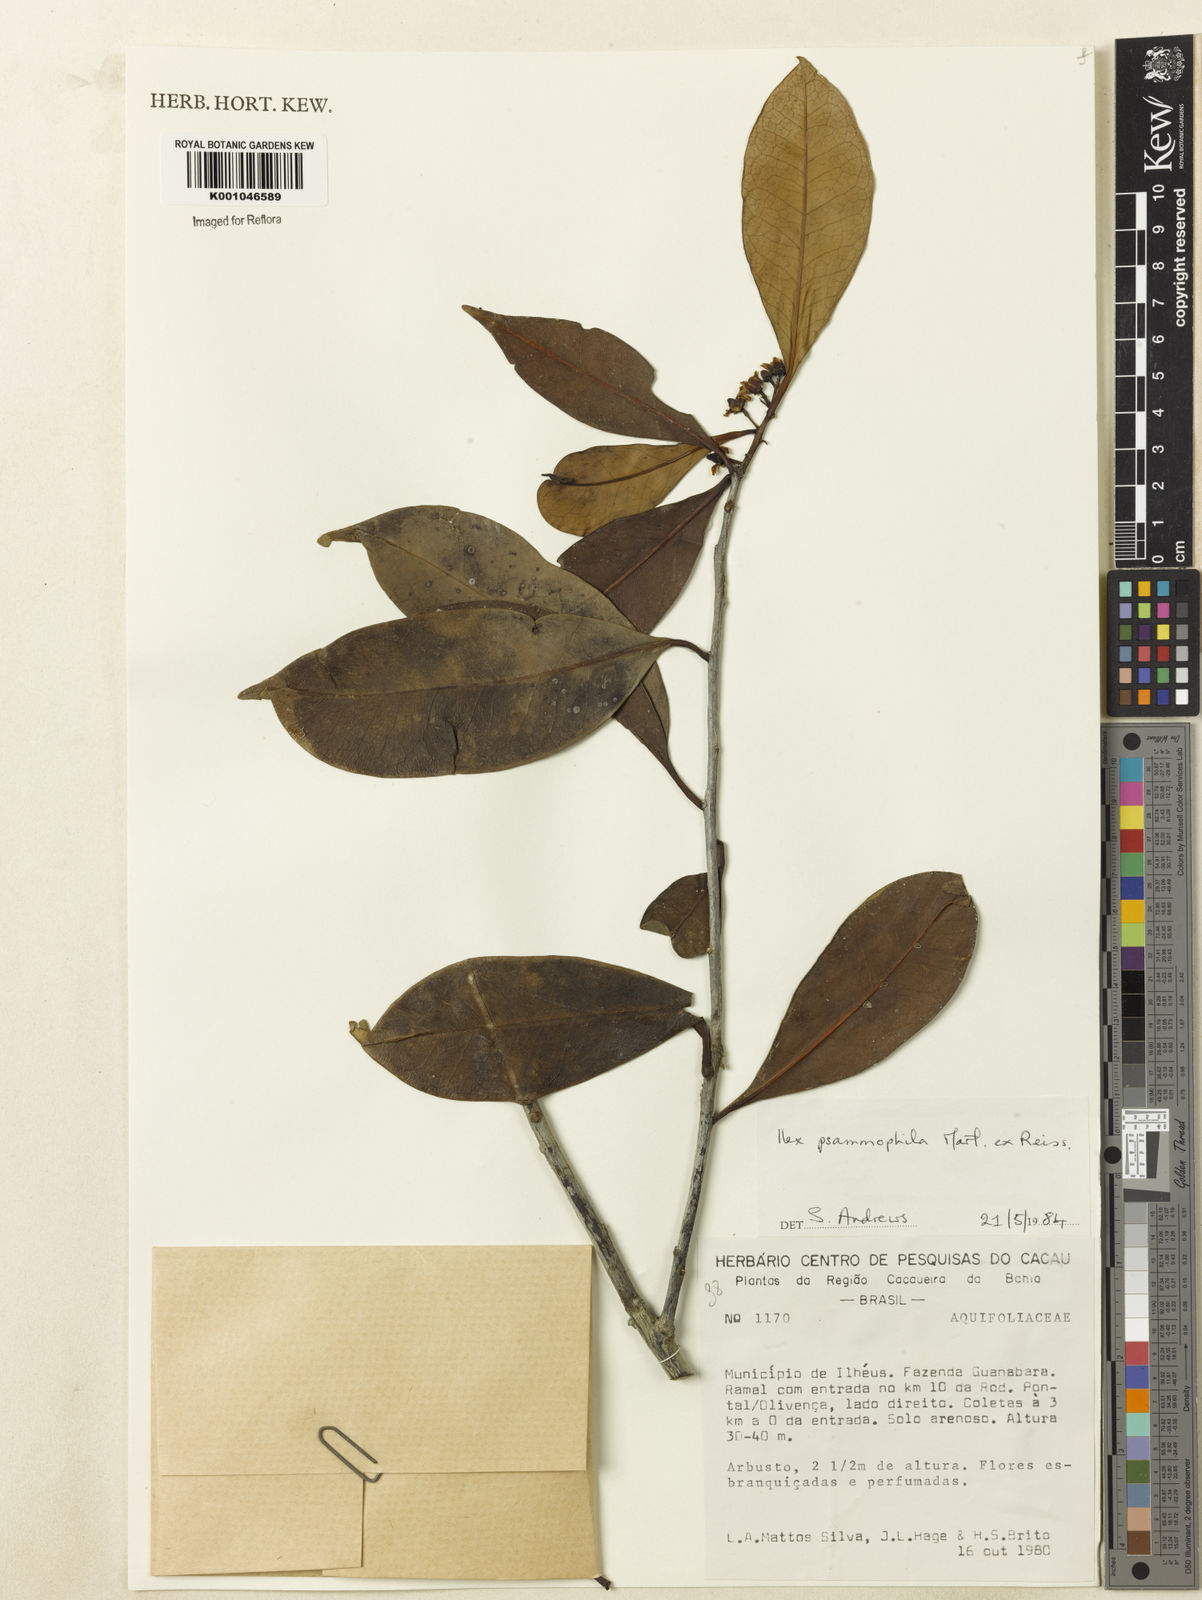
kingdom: Plantae
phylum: Tracheophyta
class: Magnoliopsida
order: Aquifoliales
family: Aquifoliaceae
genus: Ilex
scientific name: Ilex psammophila
